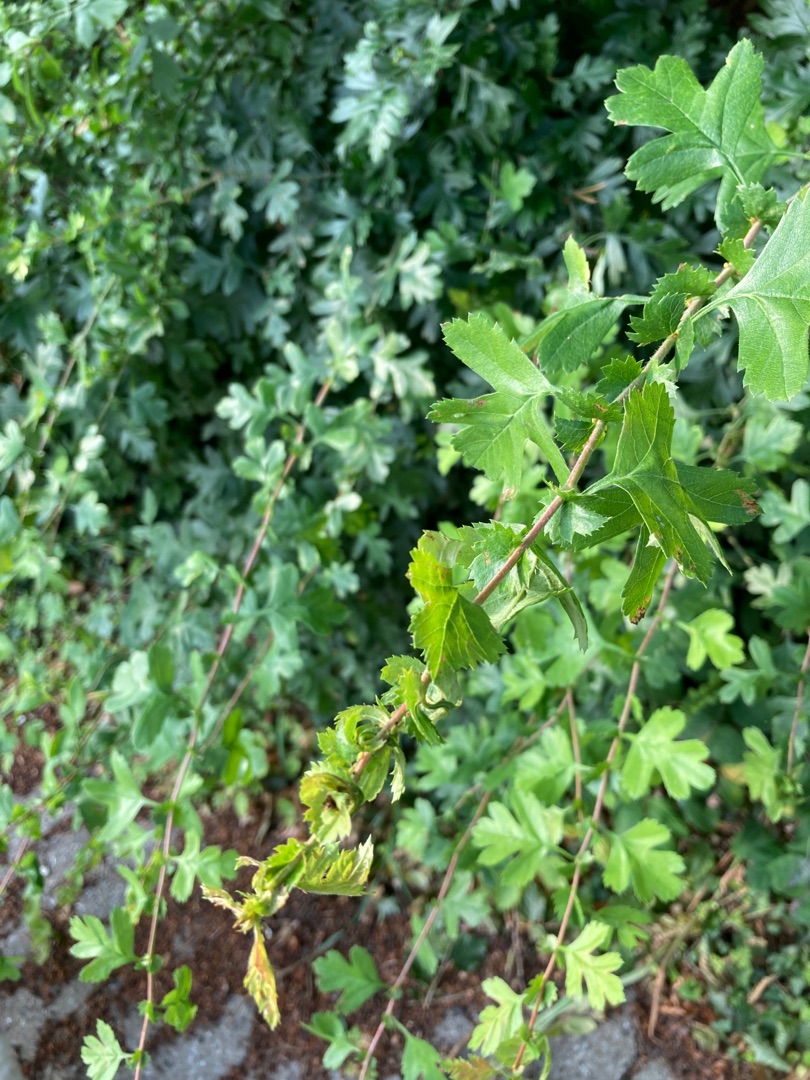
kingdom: Plantae
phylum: Tracheophyta
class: Magnoliopsida
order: Rosales
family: Rosaceae
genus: Crataegus
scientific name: Crataegus monogyna
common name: Engriflet hvidtjørn
